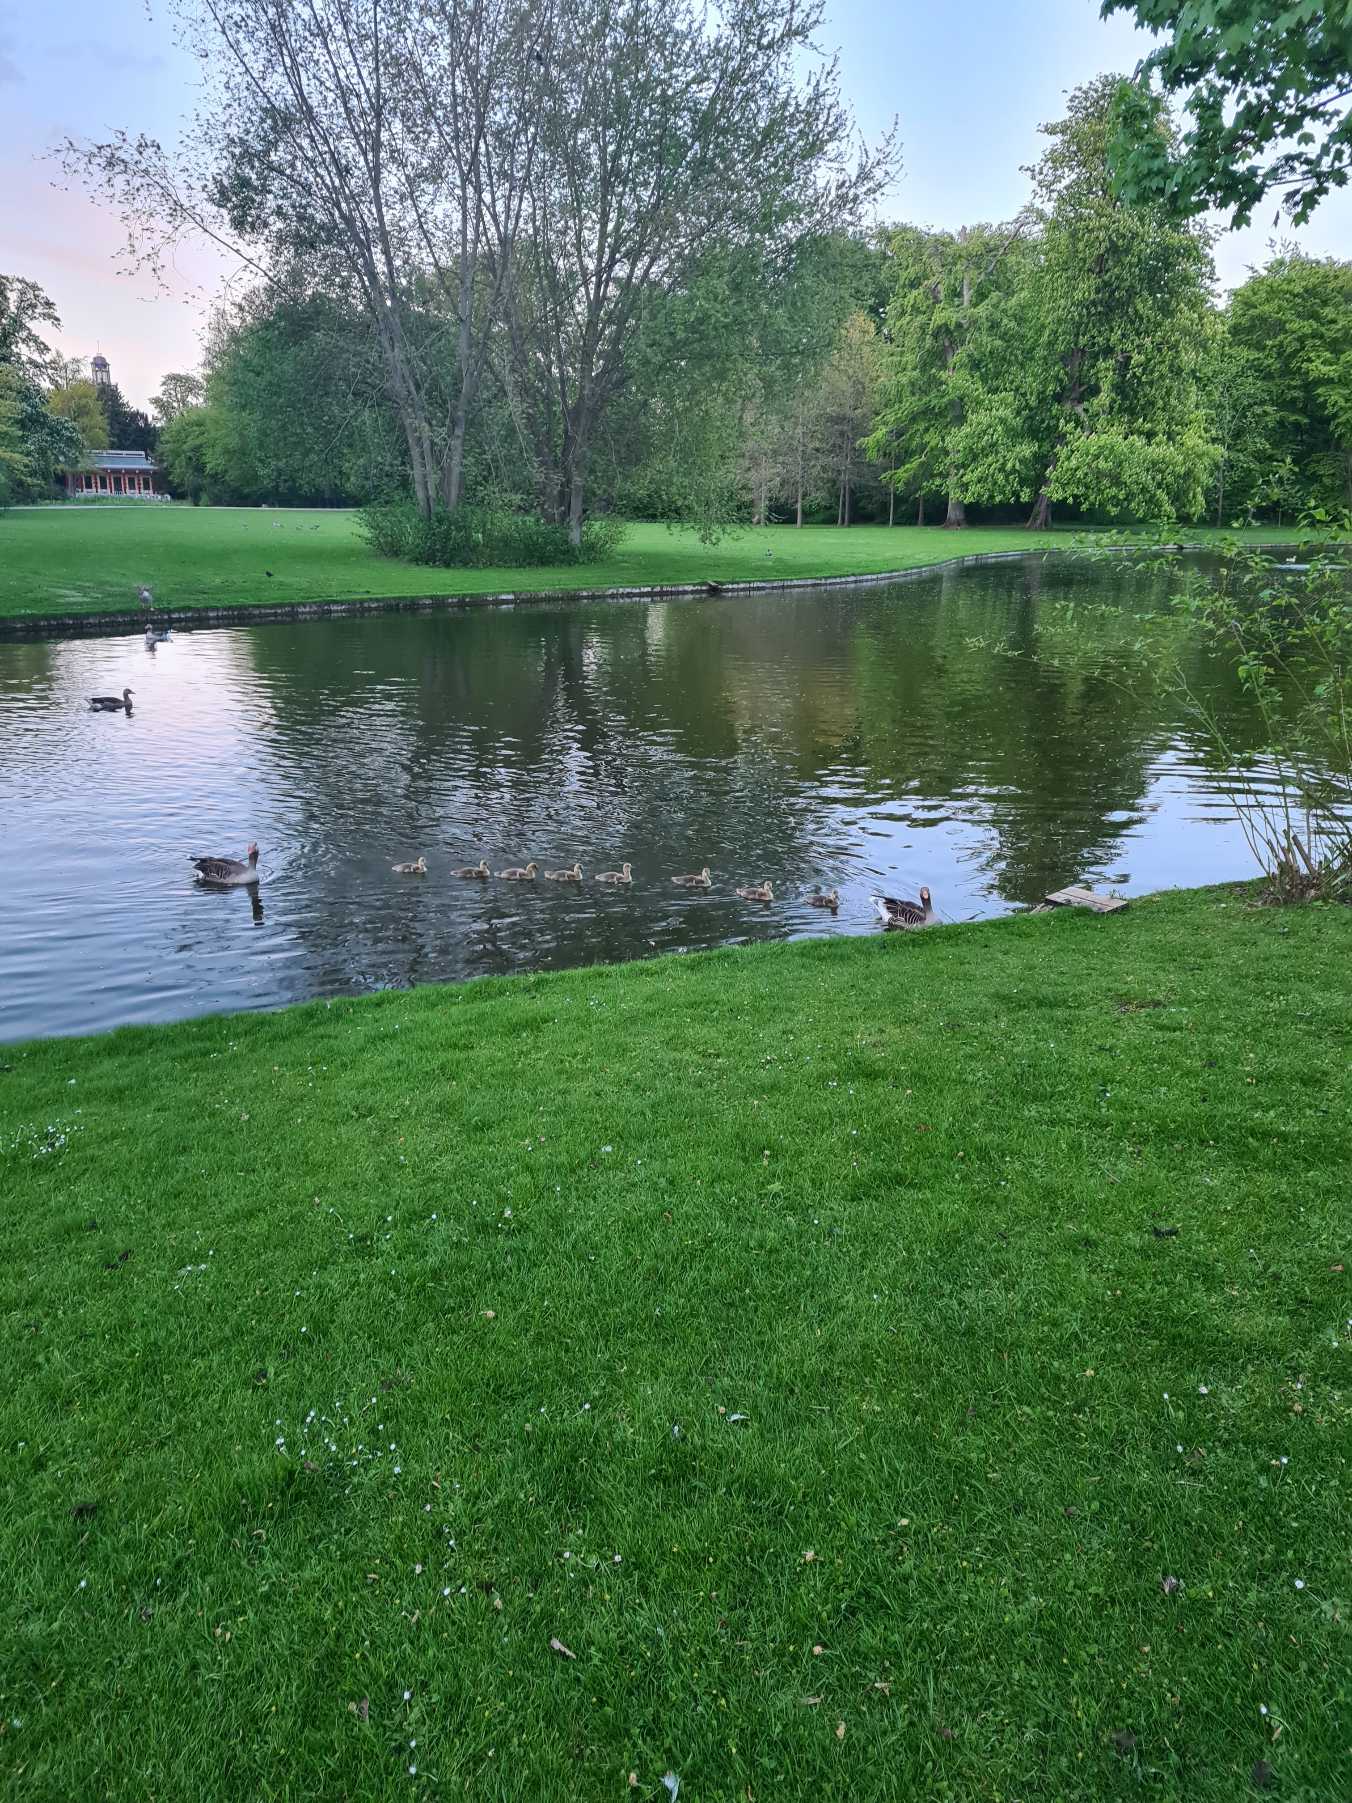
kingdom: Animalia
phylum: Chordata
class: Aves
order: Anseriformes
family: Anatidae
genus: Anser
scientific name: Anser anser
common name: Grågås
